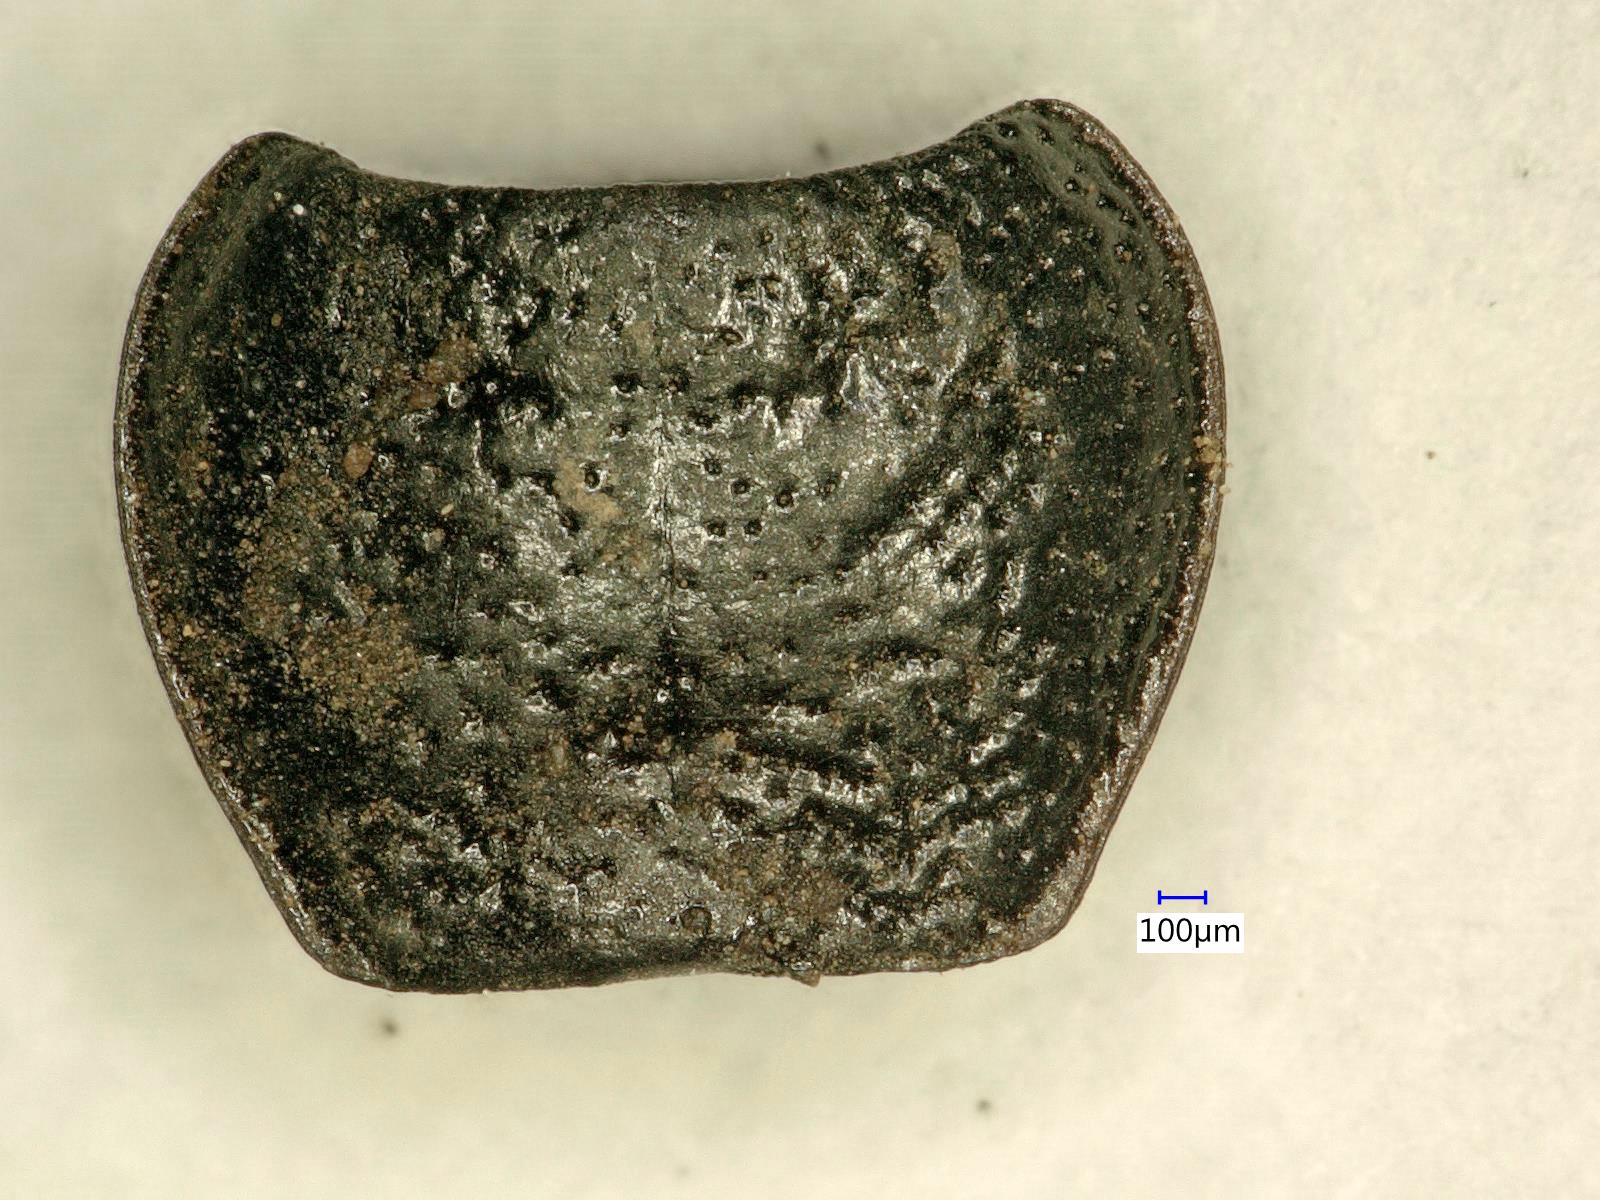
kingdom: Animalia
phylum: Arthropoda
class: Insecta
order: Coleoptera
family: Carabidae
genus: Dicheirus
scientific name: Dicheirus dilatatus
